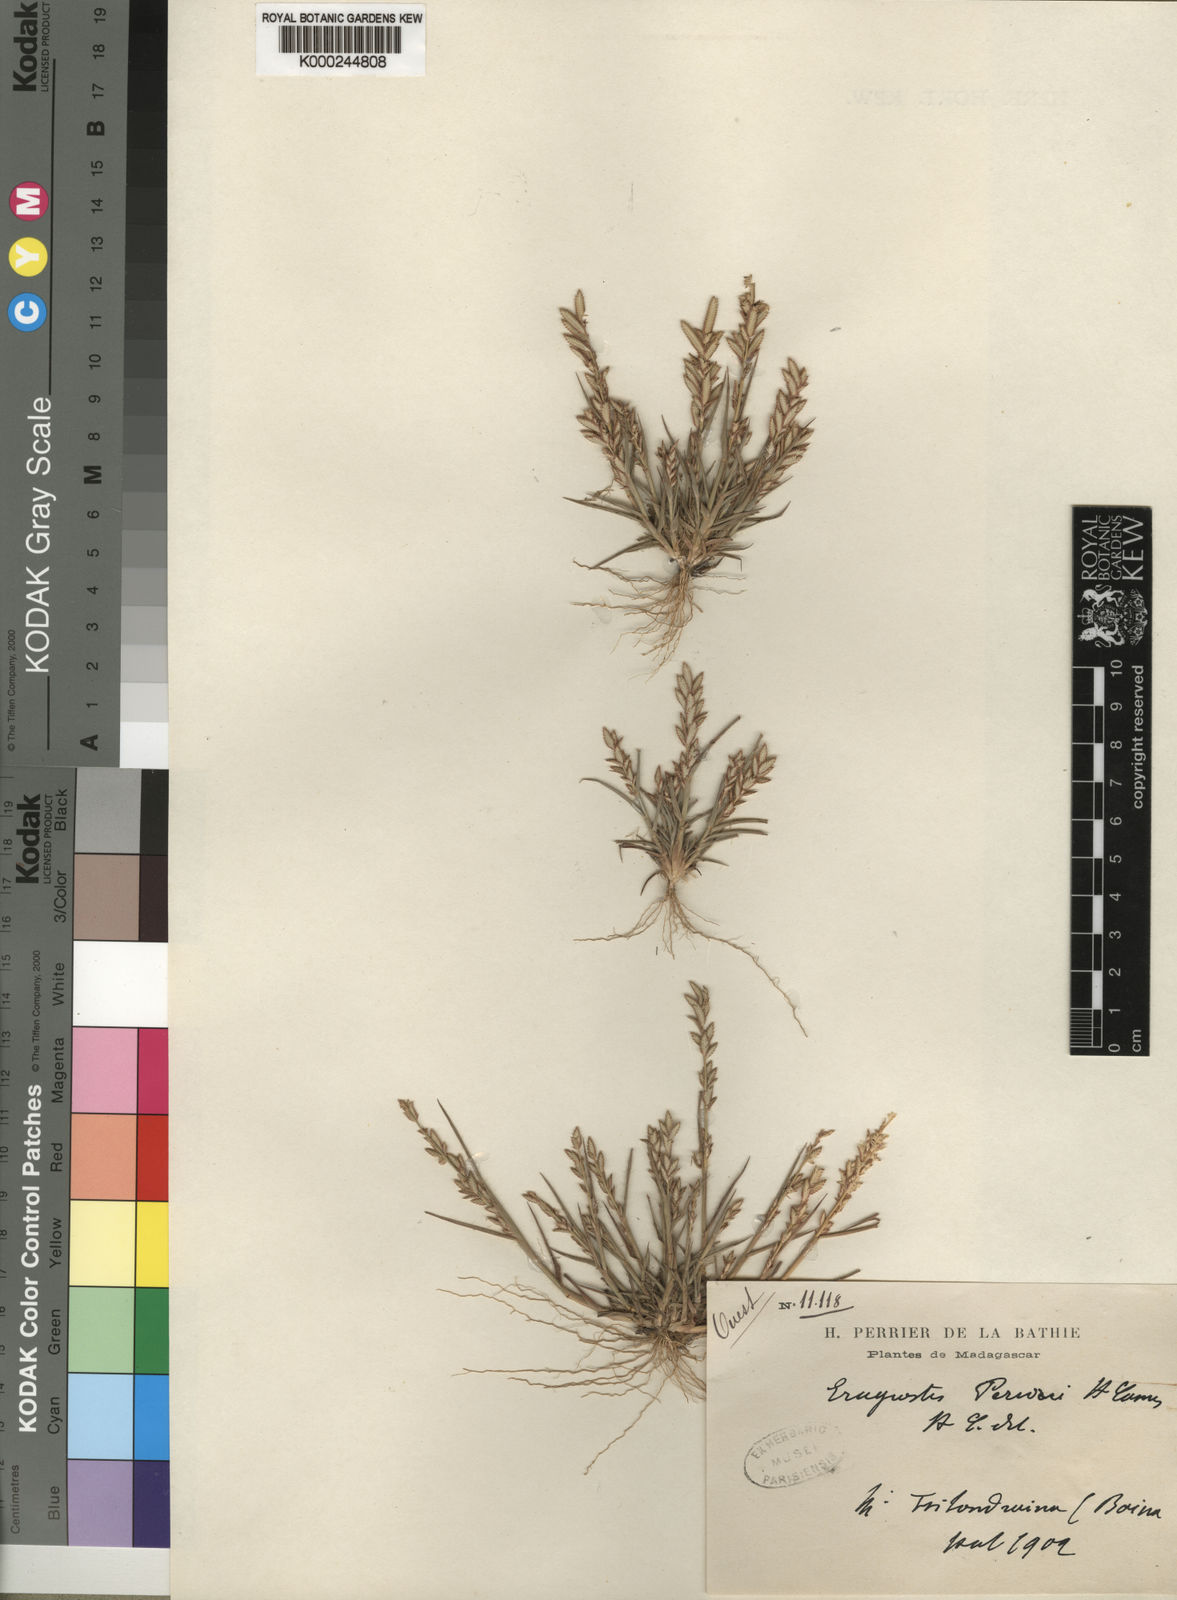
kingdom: Plantae
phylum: Tracheophyta
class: Liliopsida
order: Poales
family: Poaceae
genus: Eragrostis
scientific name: Eragrostis perrieri
